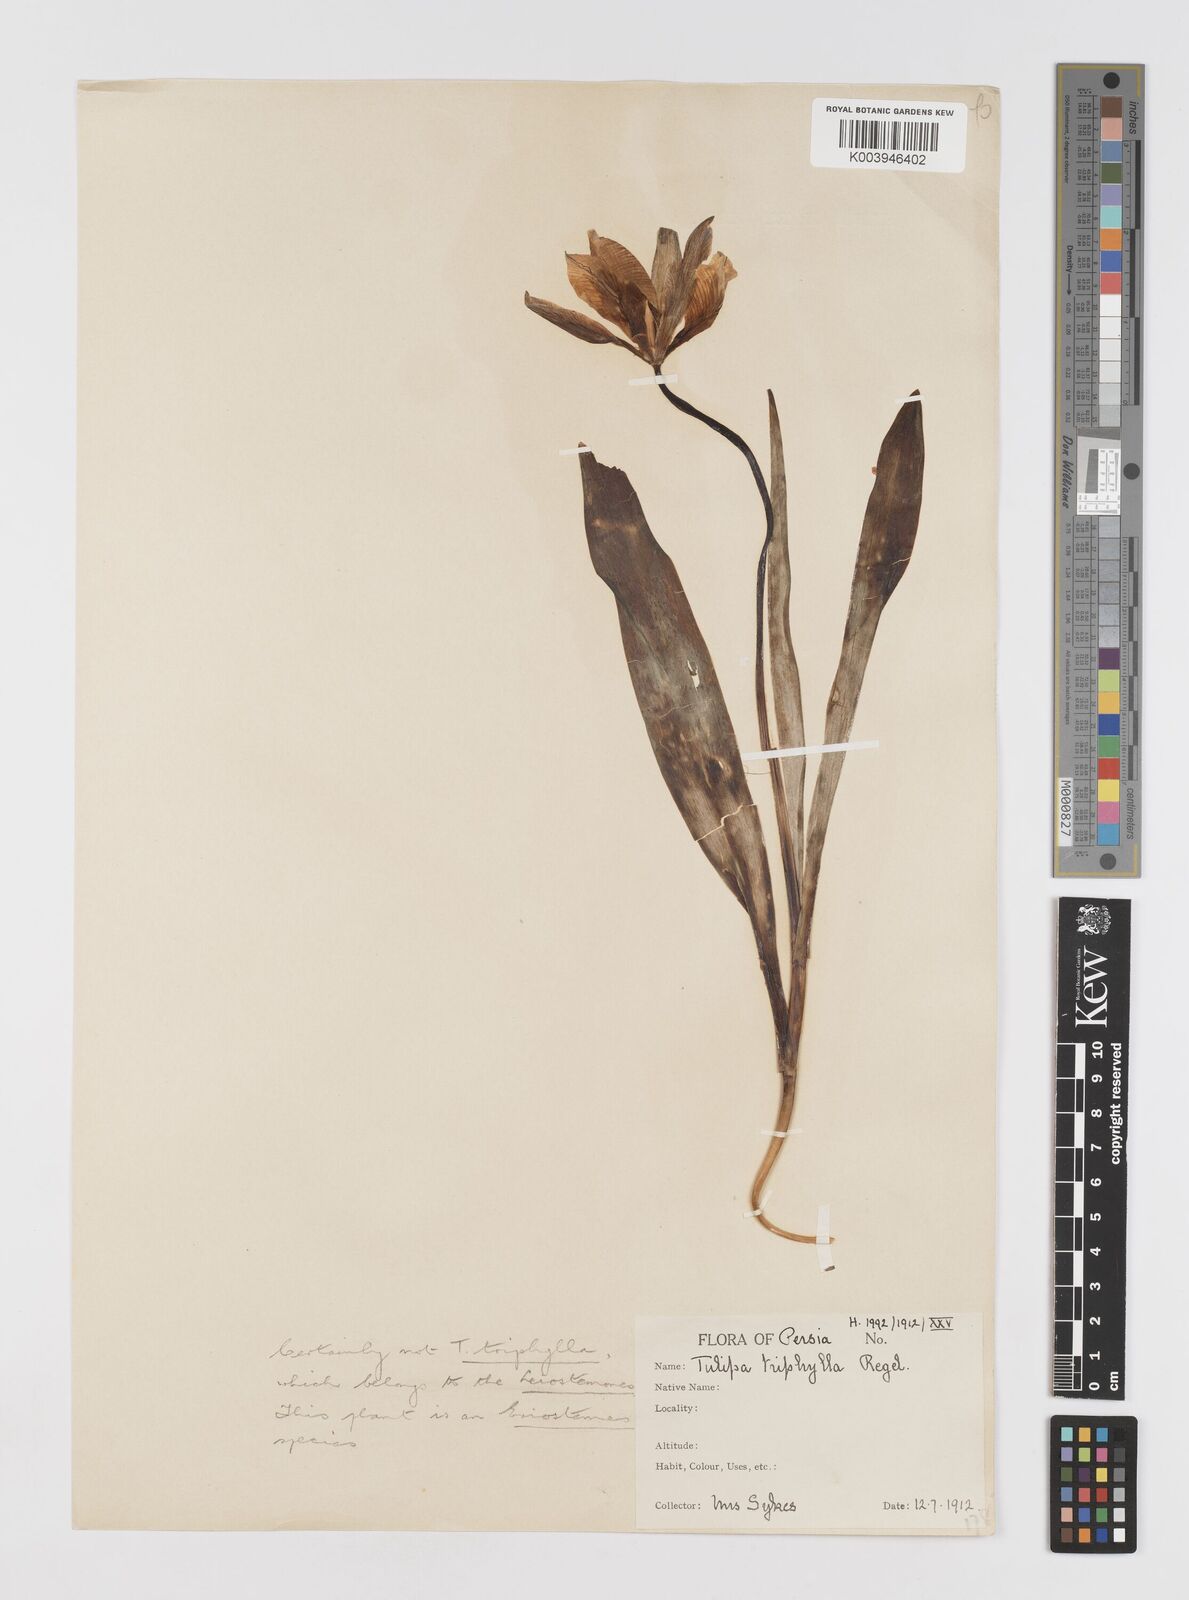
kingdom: Plantae
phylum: Tracheophyta
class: Liliopsida
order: Liliales
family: Liliaceae
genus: Tulipa
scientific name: Tulipa
